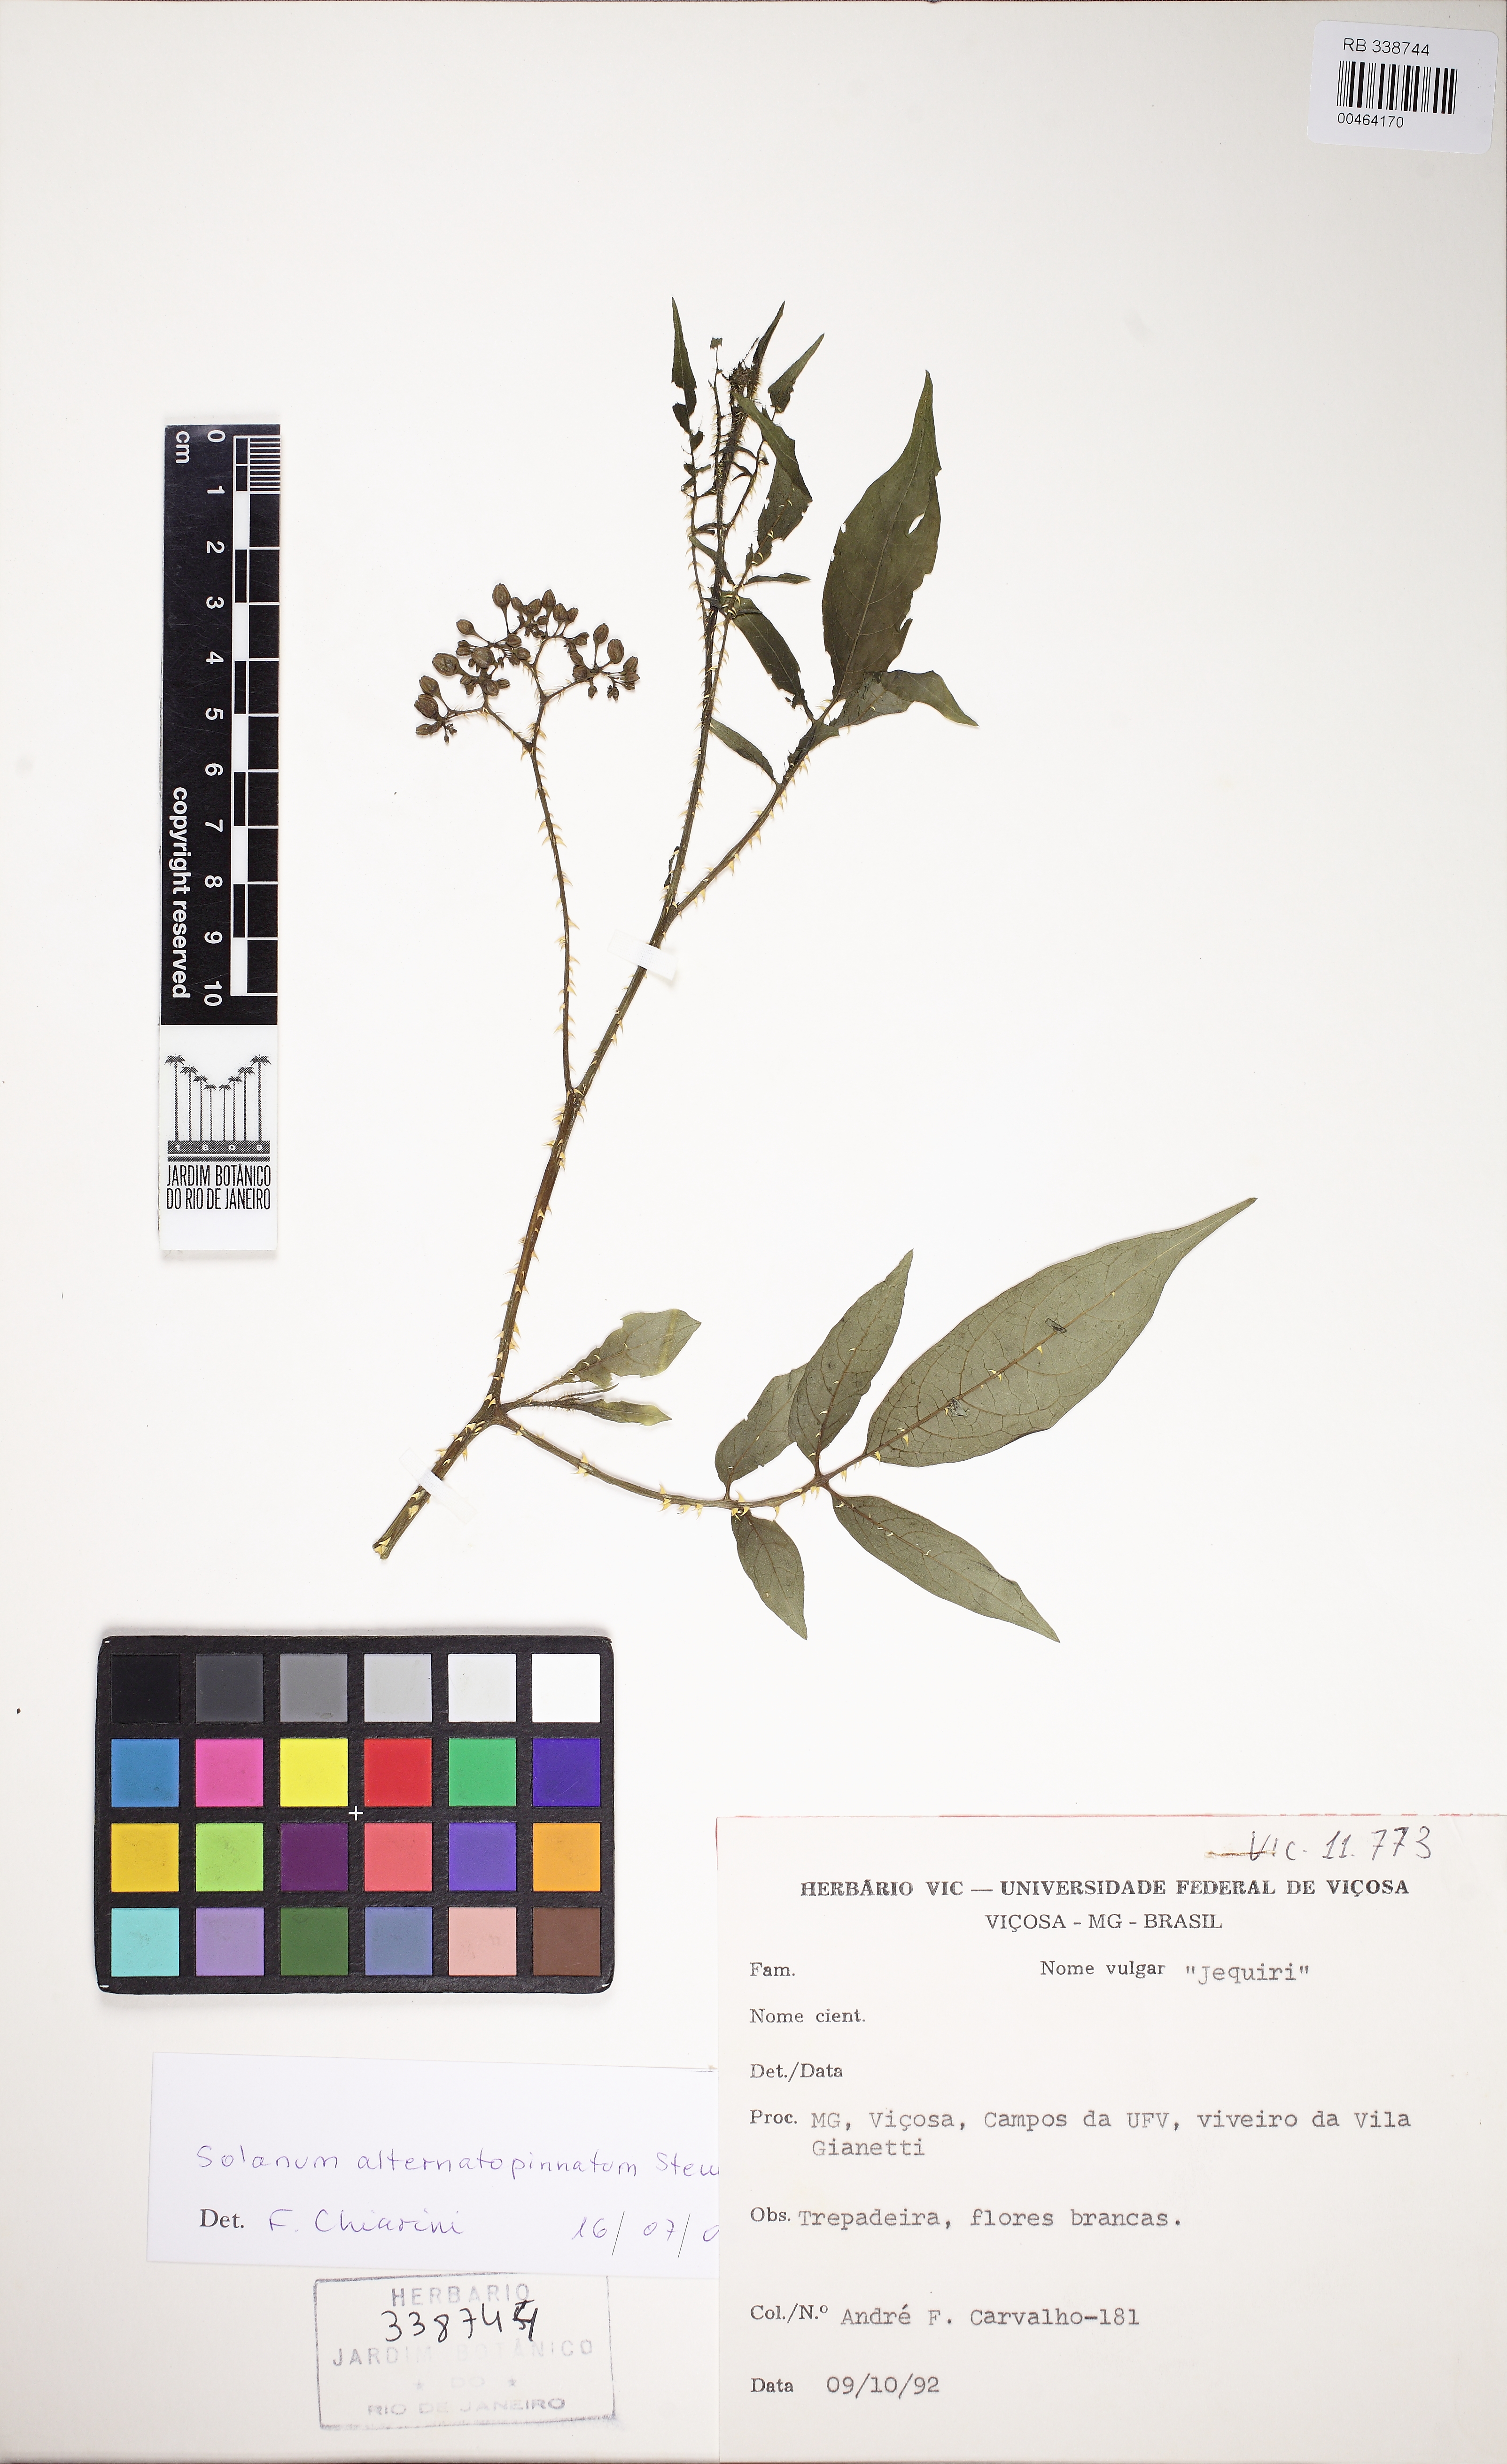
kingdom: Plantae
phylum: Tracheophyta
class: Magnoliopsida
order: Solanales
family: Solanaceae
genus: Solanum
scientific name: Solanum alternatopinnatum
